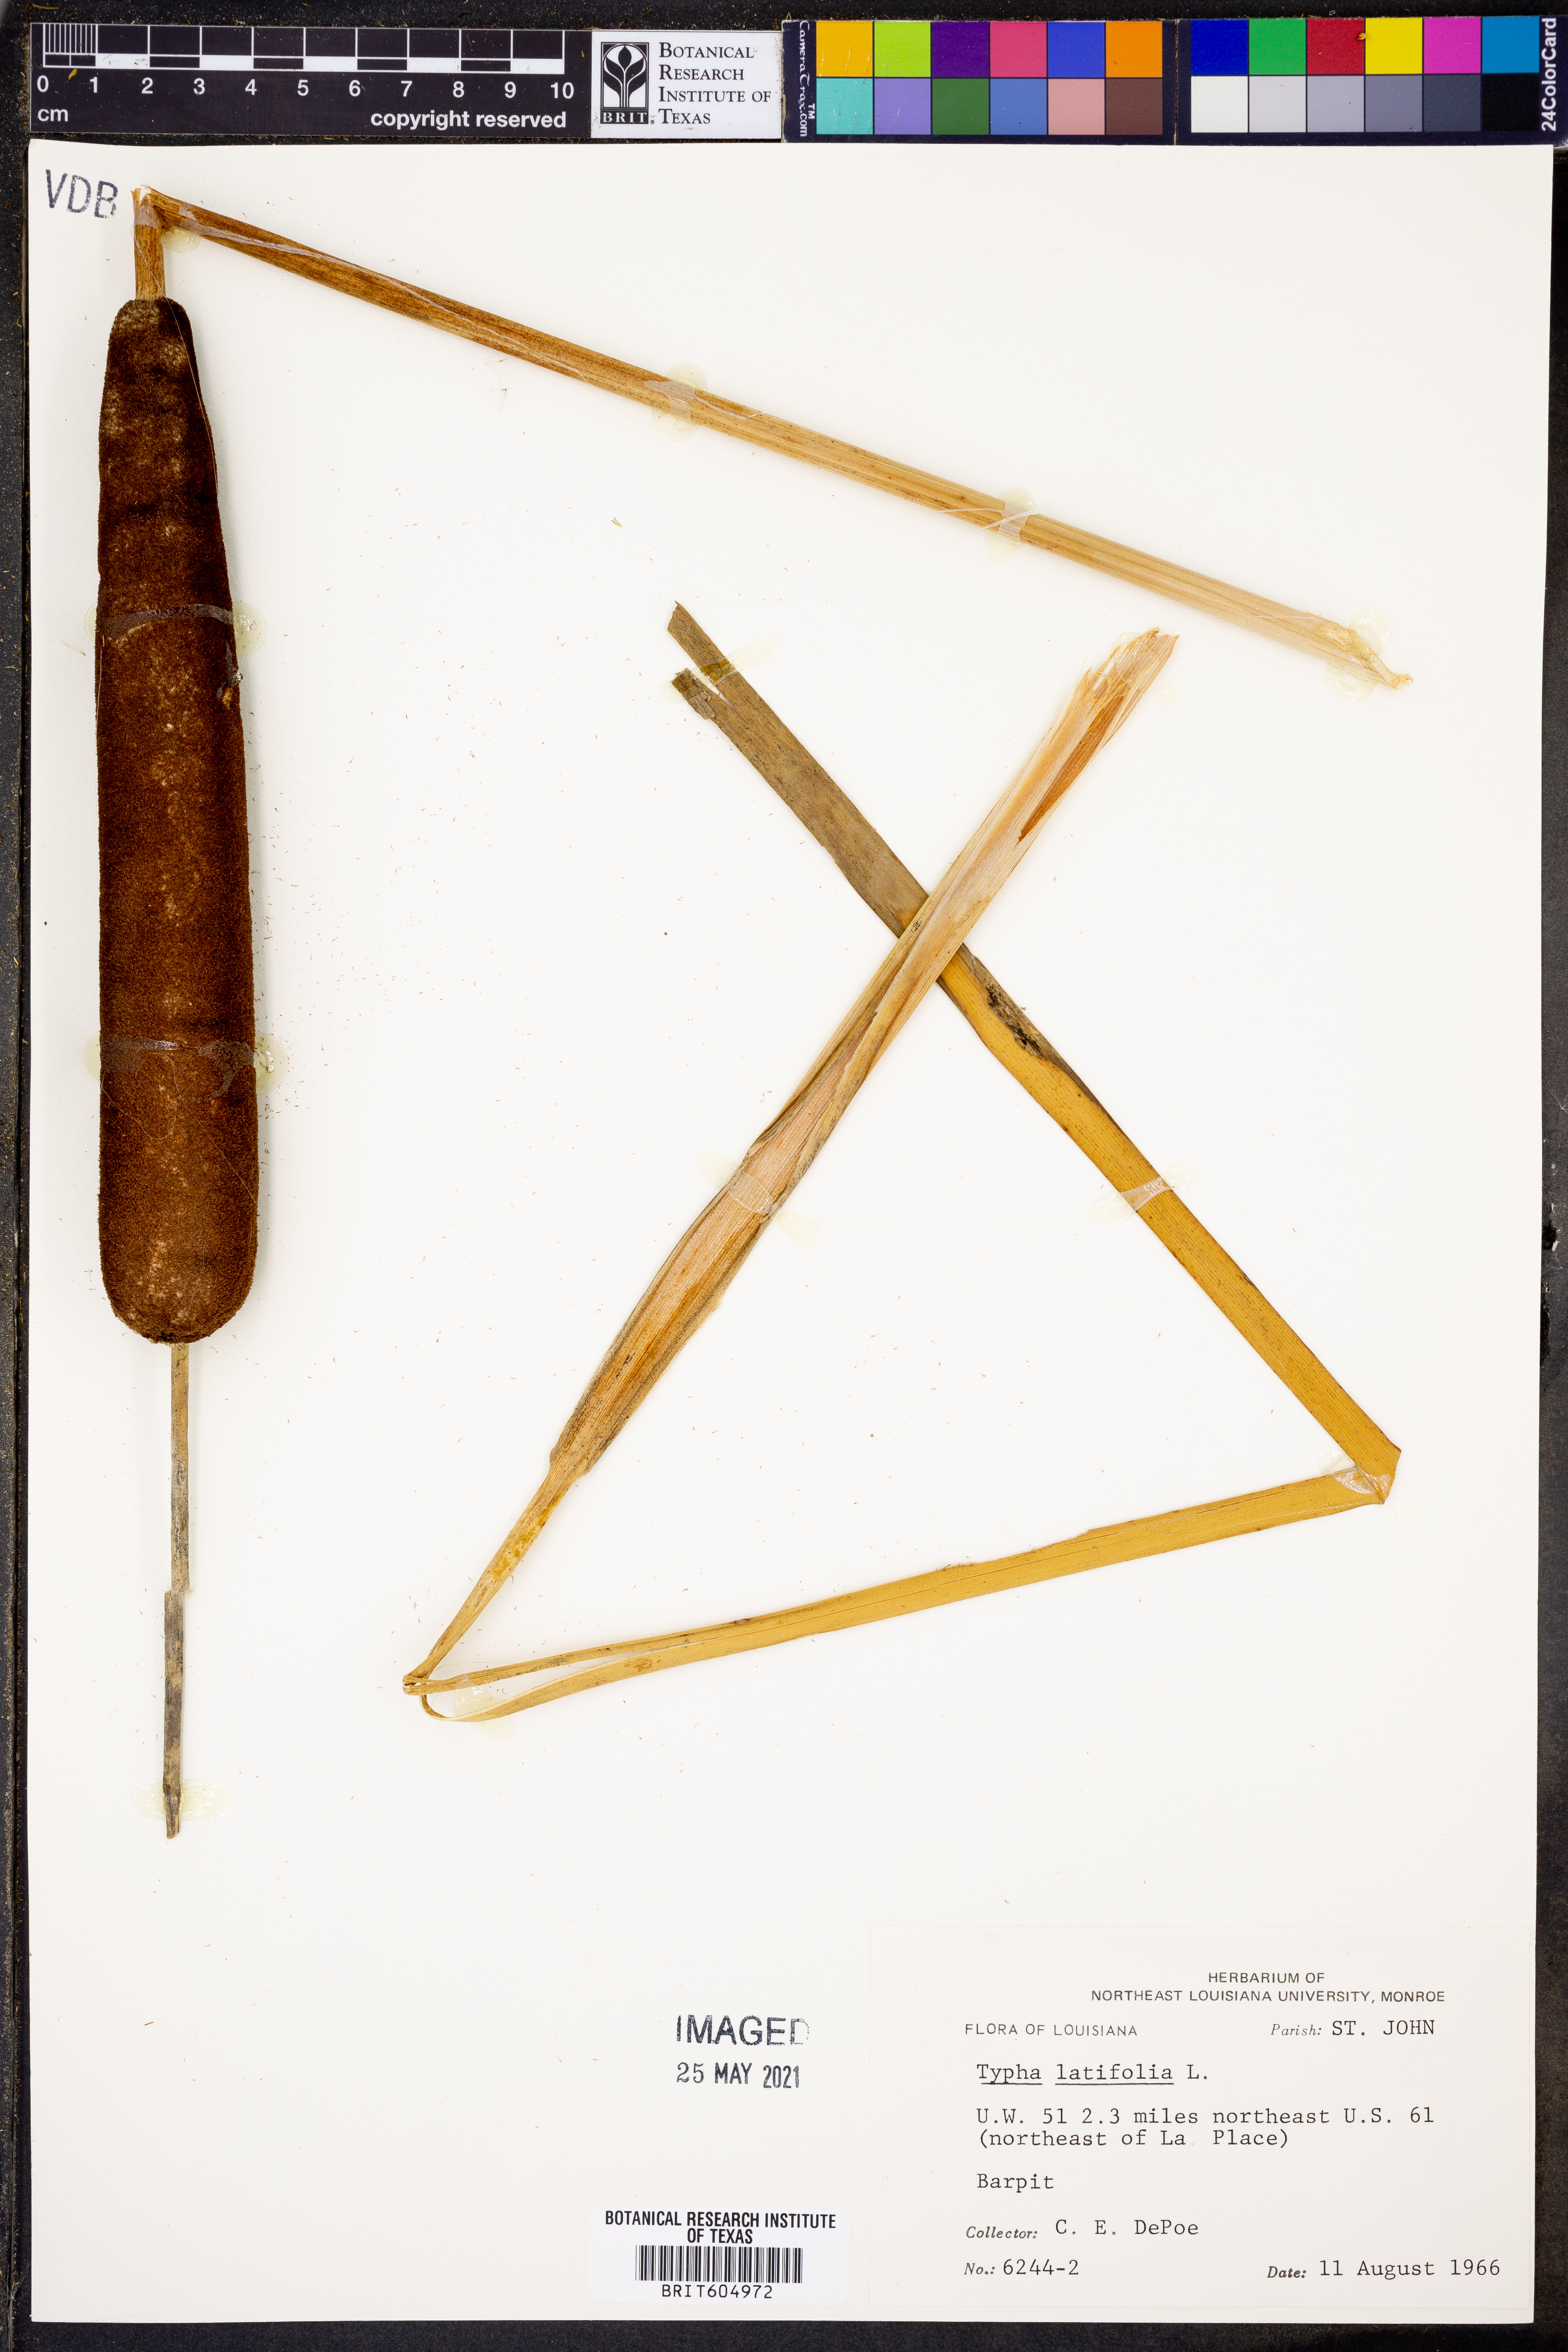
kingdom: Plantae
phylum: Tracheophyta
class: Liliopsida
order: Poales
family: Typhaceae
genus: Typha
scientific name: Typha latifolia
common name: Broadleaf cattail
